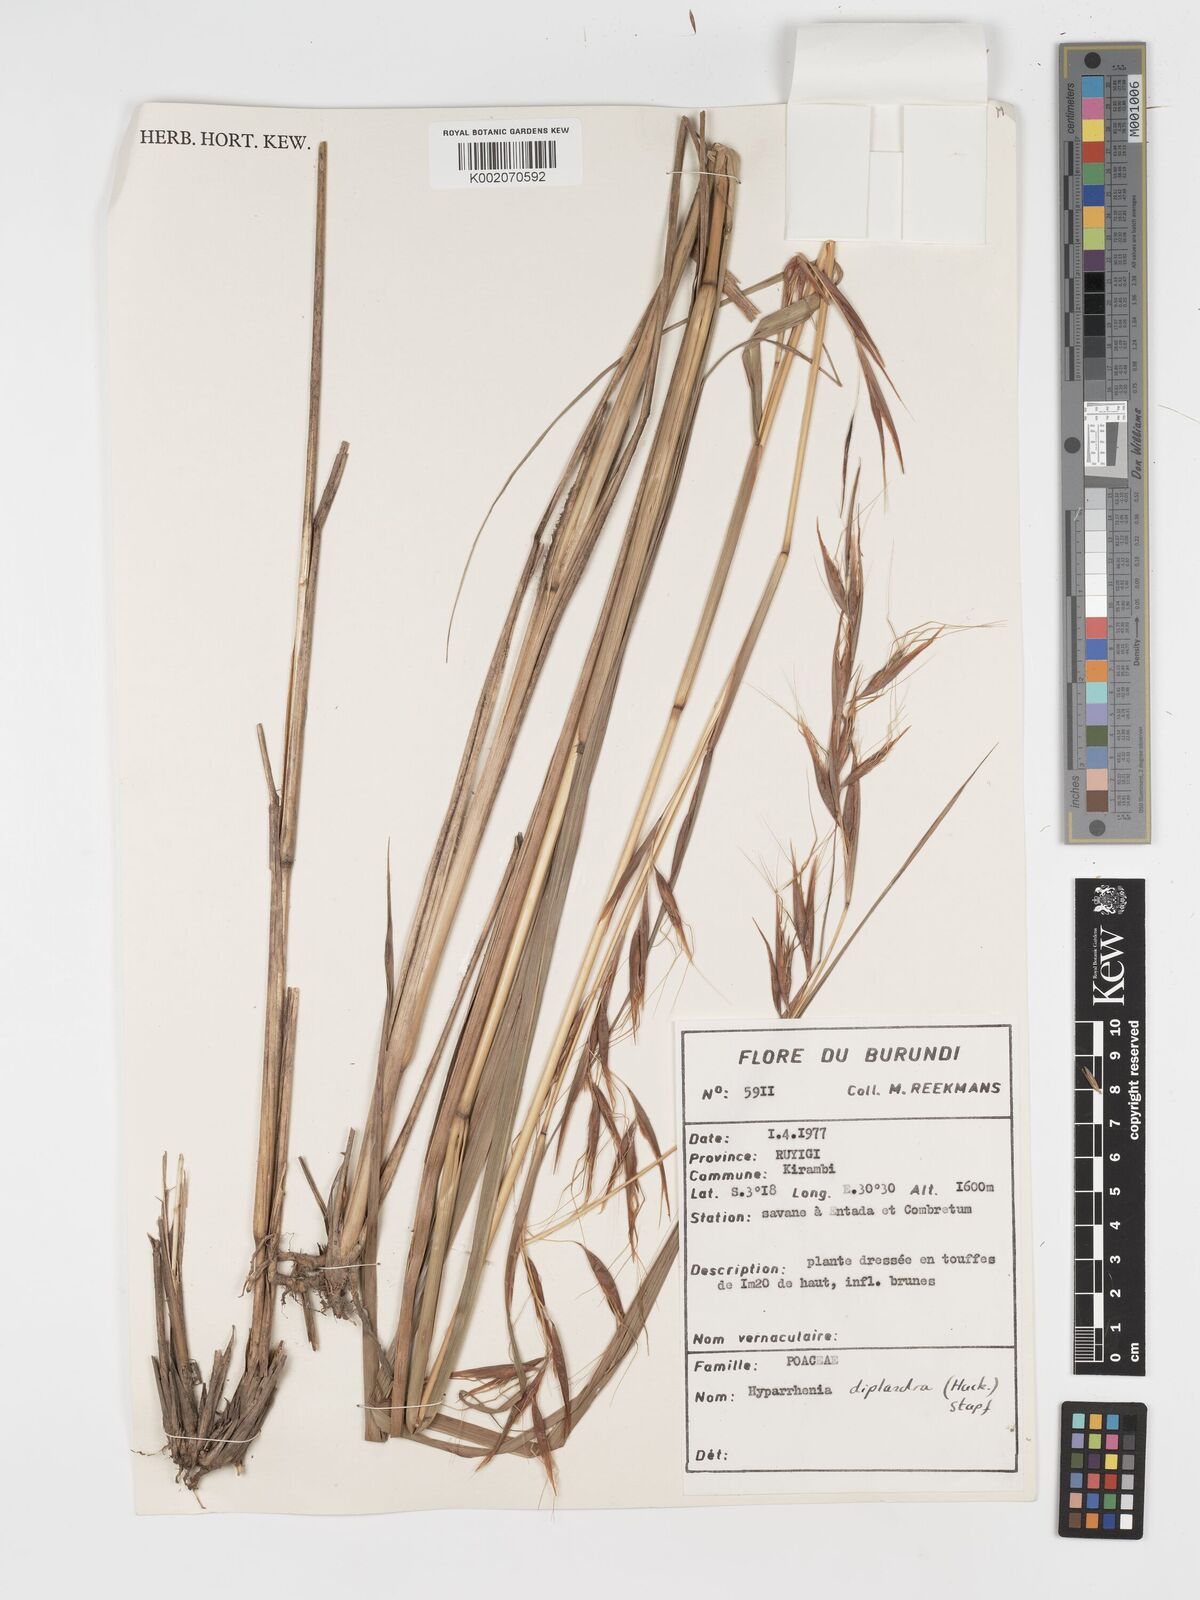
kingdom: Plantae
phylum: Tracheophyta
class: Liliopsida
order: Poales
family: Poaceae
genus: Hyparrhenia
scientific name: Hyparrhenia diplandra
